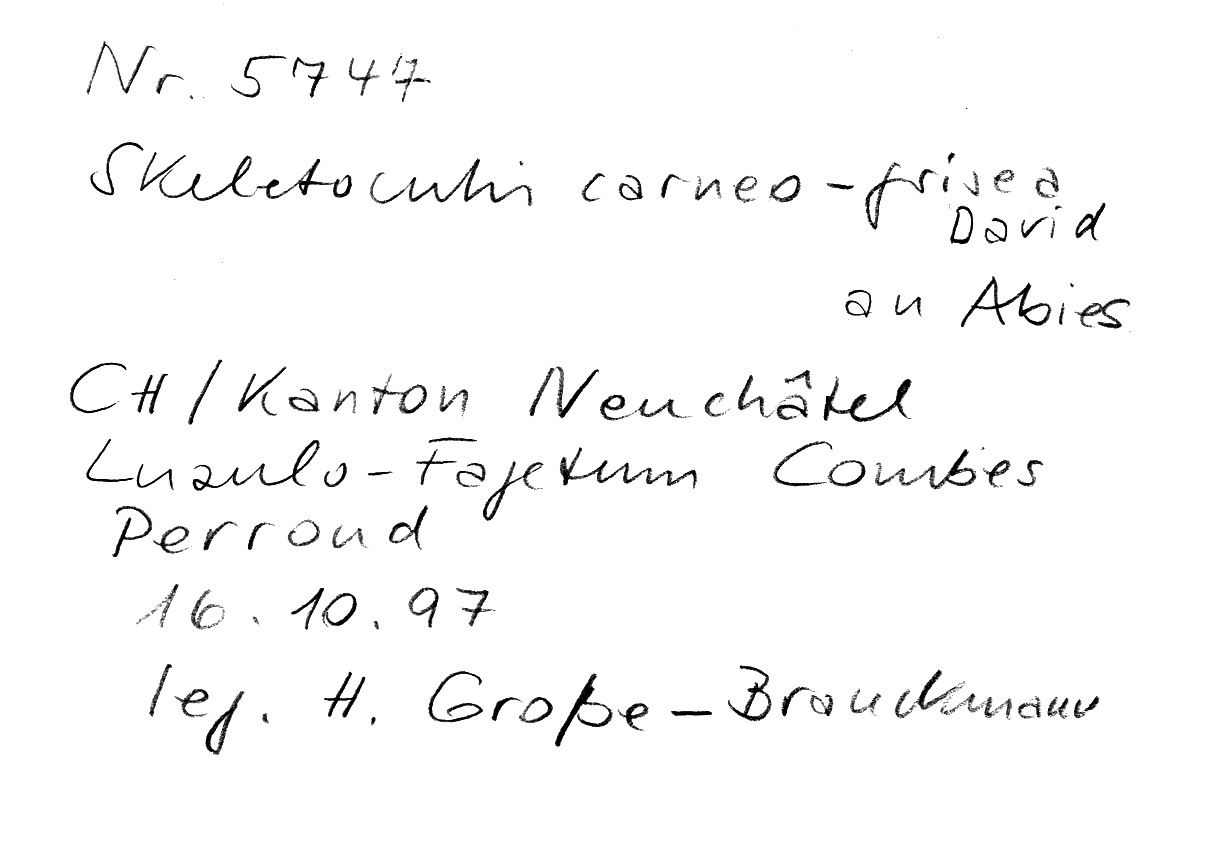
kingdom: Fungi
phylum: Basidiomycota
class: Agaricomycetes
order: Polyporales
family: Incrustoporiaceae
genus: Skeletocutis
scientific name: Skeletocutis carneogrisea
